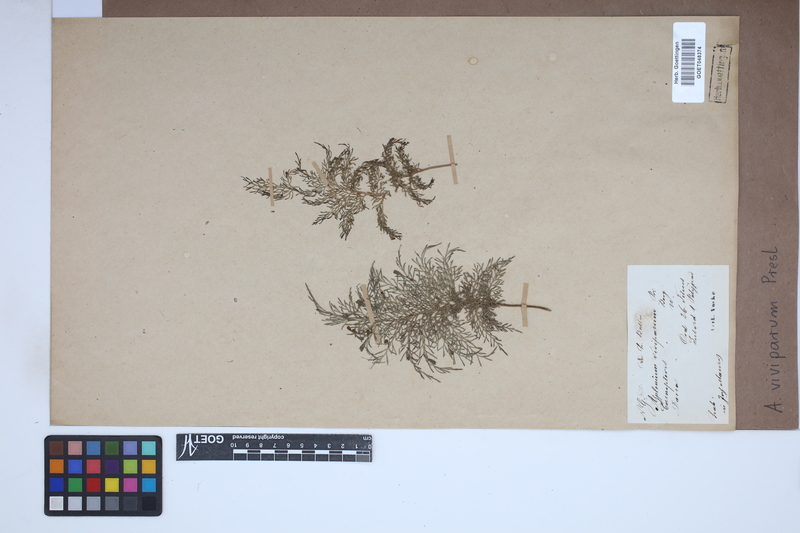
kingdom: Plantae
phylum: Tracheophyta
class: Polypodiopsida
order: Polypodiales
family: Aspleniaceae
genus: Asplenium
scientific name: Asplenium daucifolium
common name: Mauritius spleenwort
